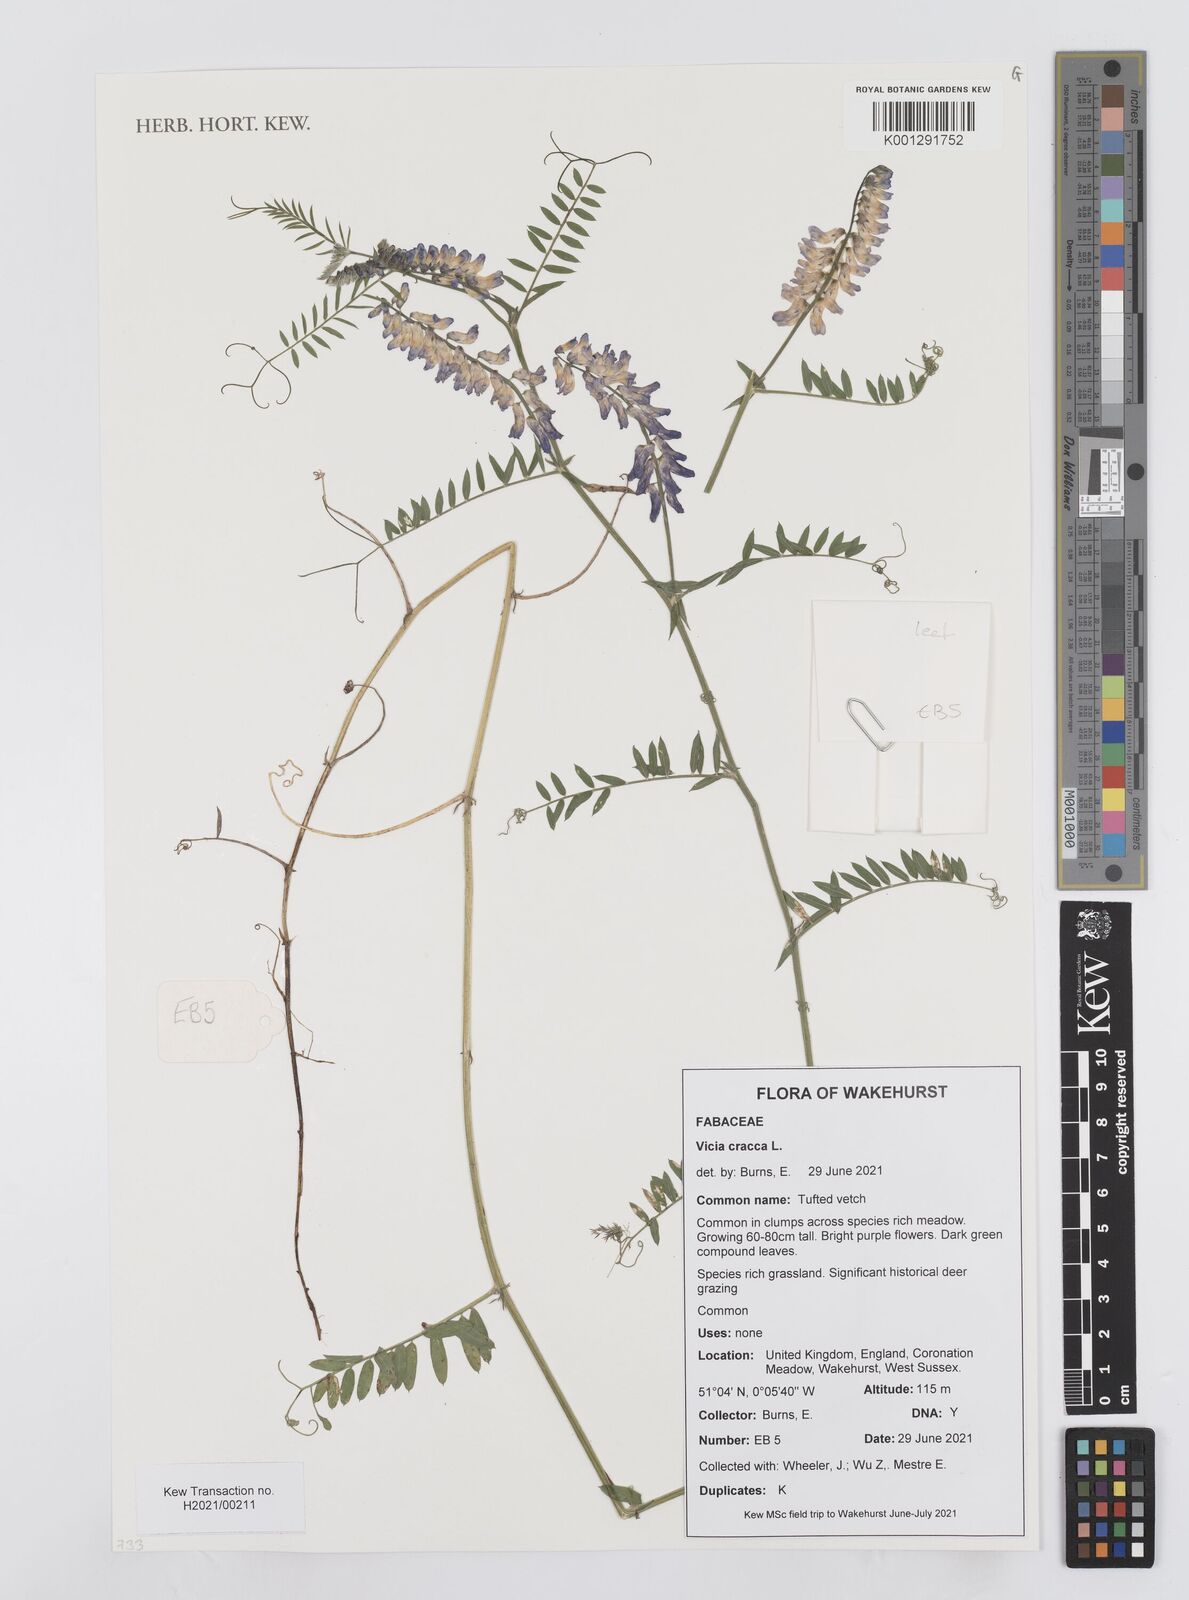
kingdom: Plantae
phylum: Tracheophyta
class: Magnoliopsida
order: Fabales
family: Fabaceae
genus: Vicia
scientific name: Vicia cracca
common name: Bird vetch
